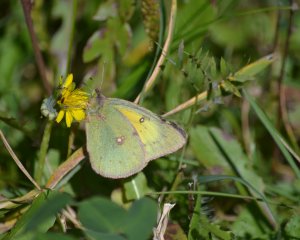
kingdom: Animalia
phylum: Arthropoda
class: Insecta
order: Lepidoptera
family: Pieridae
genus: Colias
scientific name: Colias eurytheme
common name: Orange Sulphur
